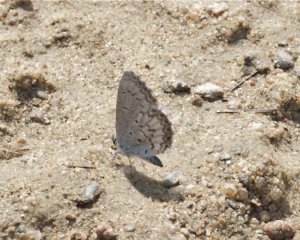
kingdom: Animalia
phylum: Arthropoda
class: Insecta
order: Lepidoptera
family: Lycaenidae
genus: Cyaniris
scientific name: Cyaniris neglecta
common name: Summer Azure
